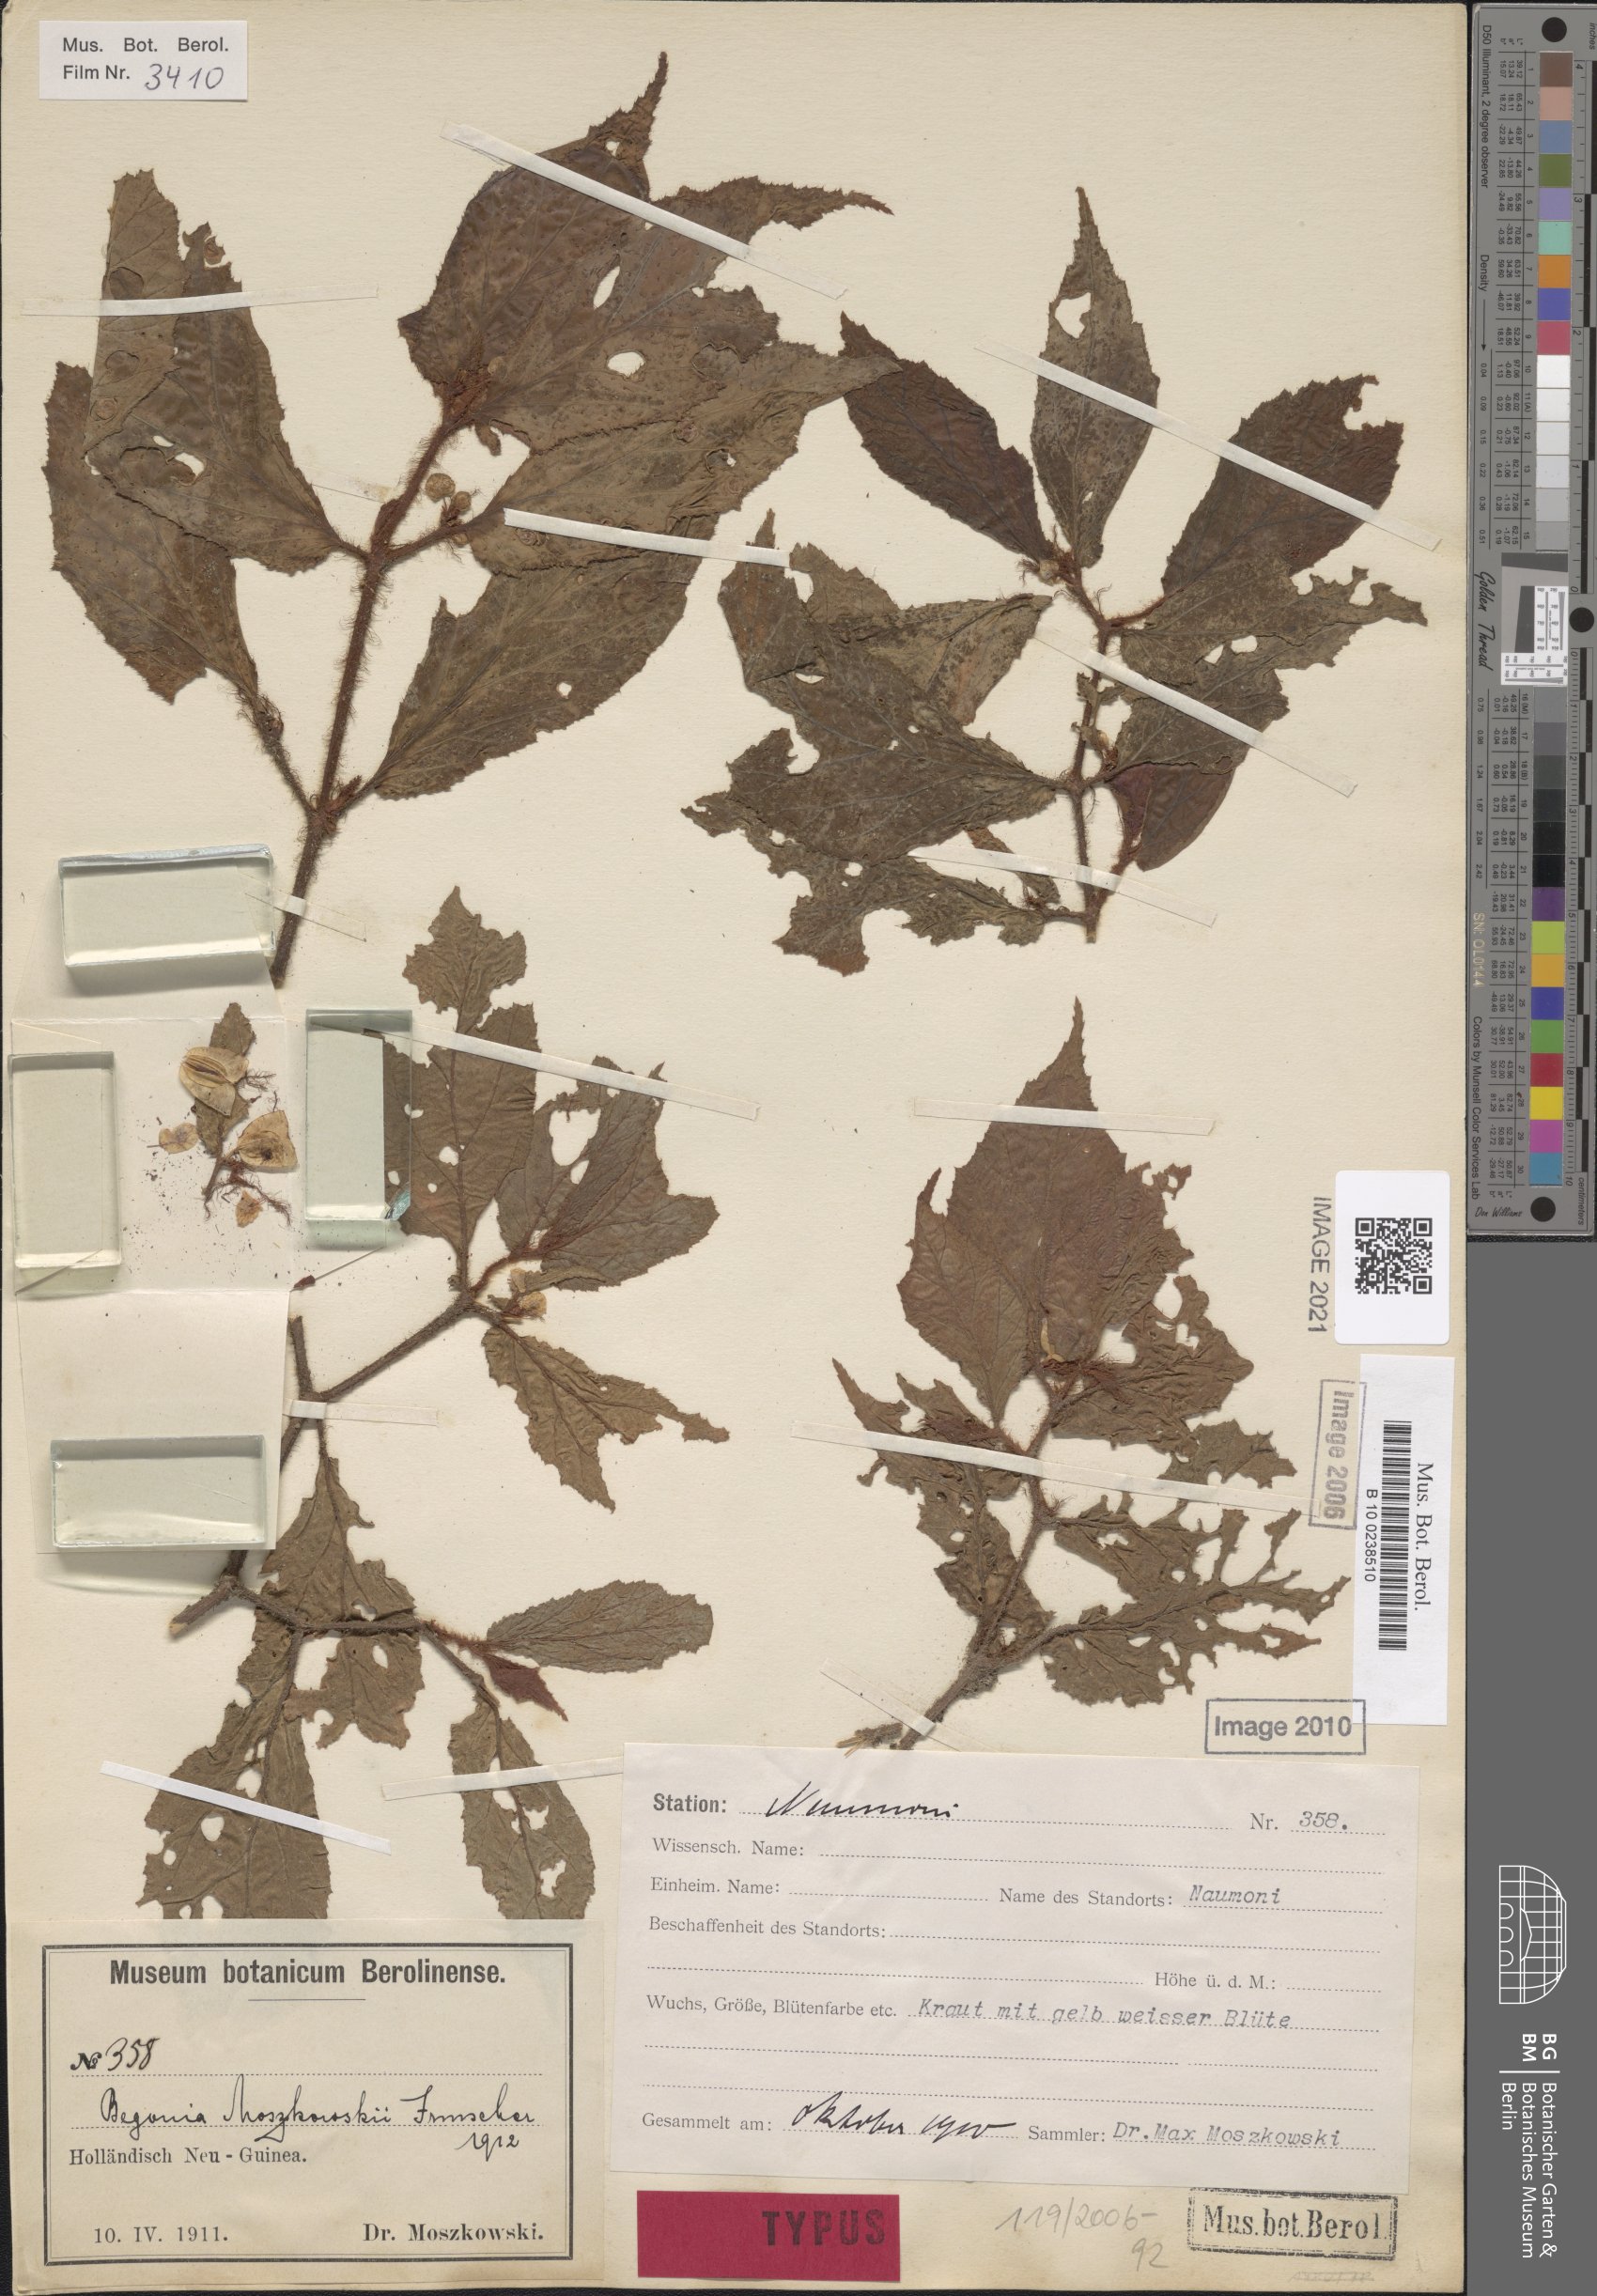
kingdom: Plantae
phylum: Tracheophyta
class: Magnoliopsida
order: Cucurbitales
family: Begoniaceae
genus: Begonia
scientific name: Begonia moszkowskii
